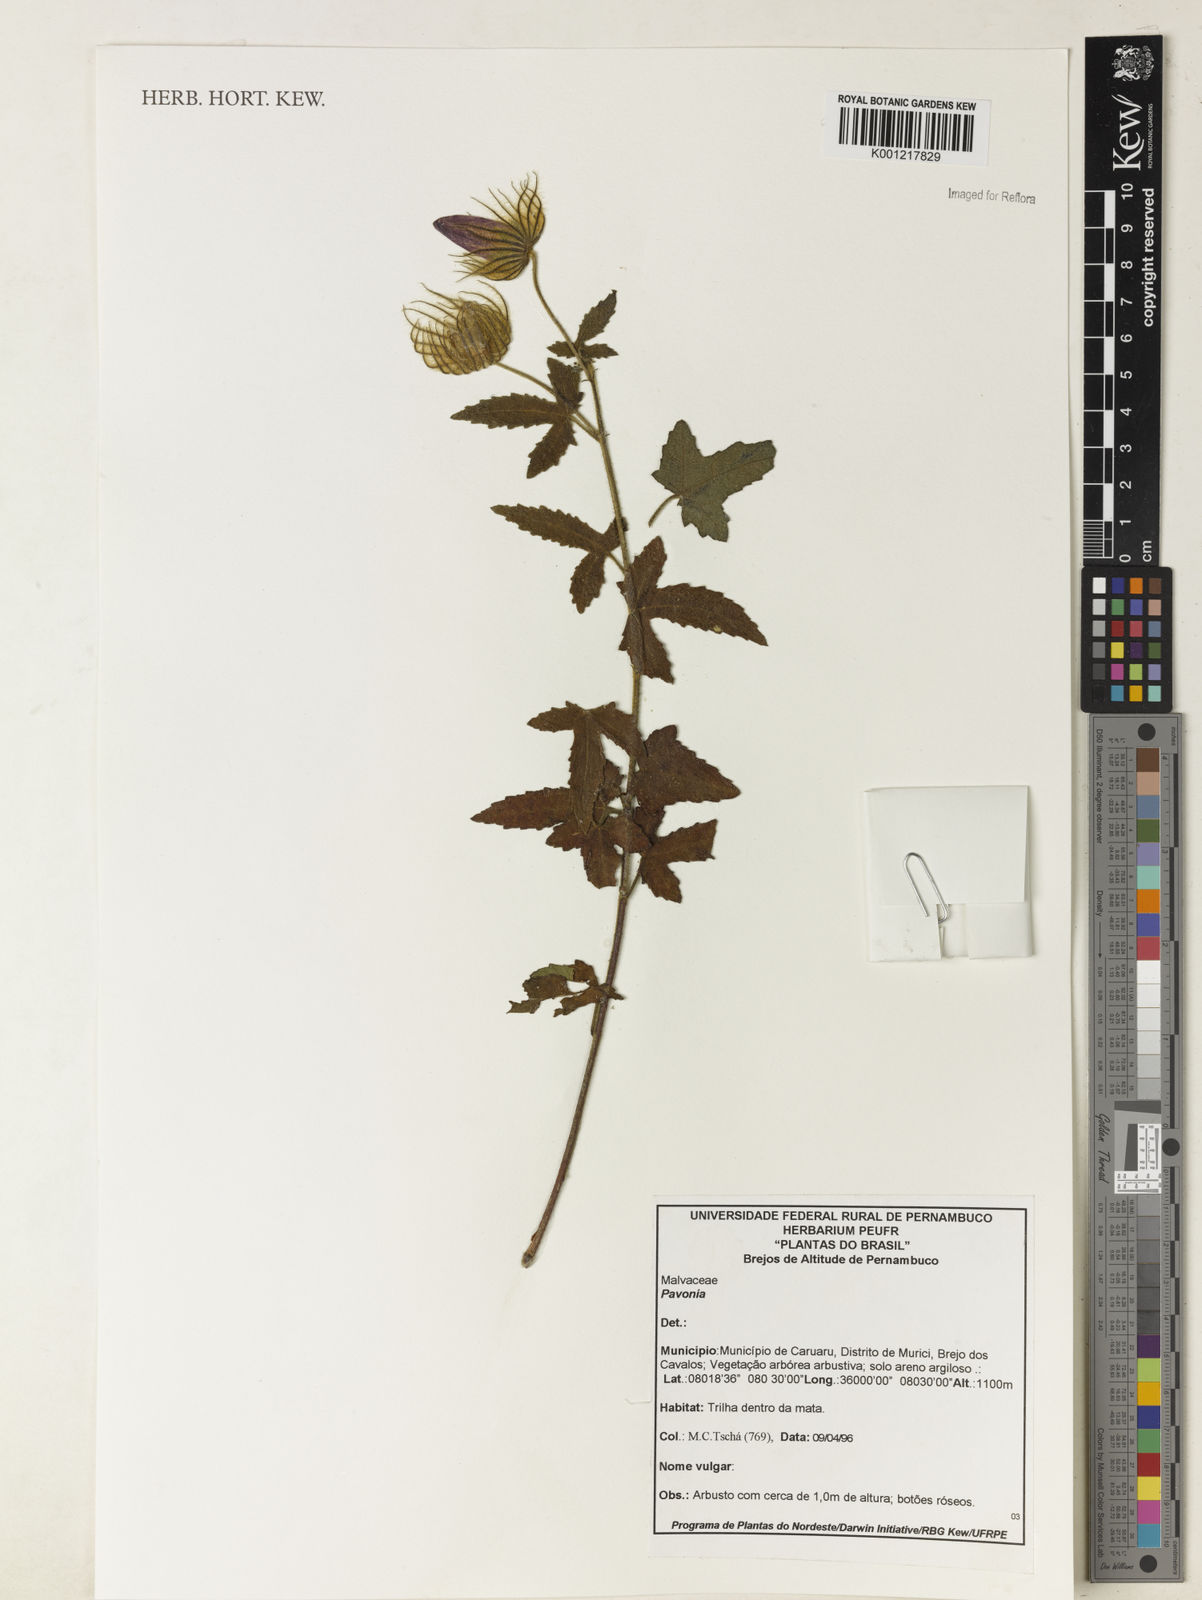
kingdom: Plantae
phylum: Tracheophyta
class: Magnoliopsida
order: Malvales
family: Malvaceae
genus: Pavonia
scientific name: Pavonia
